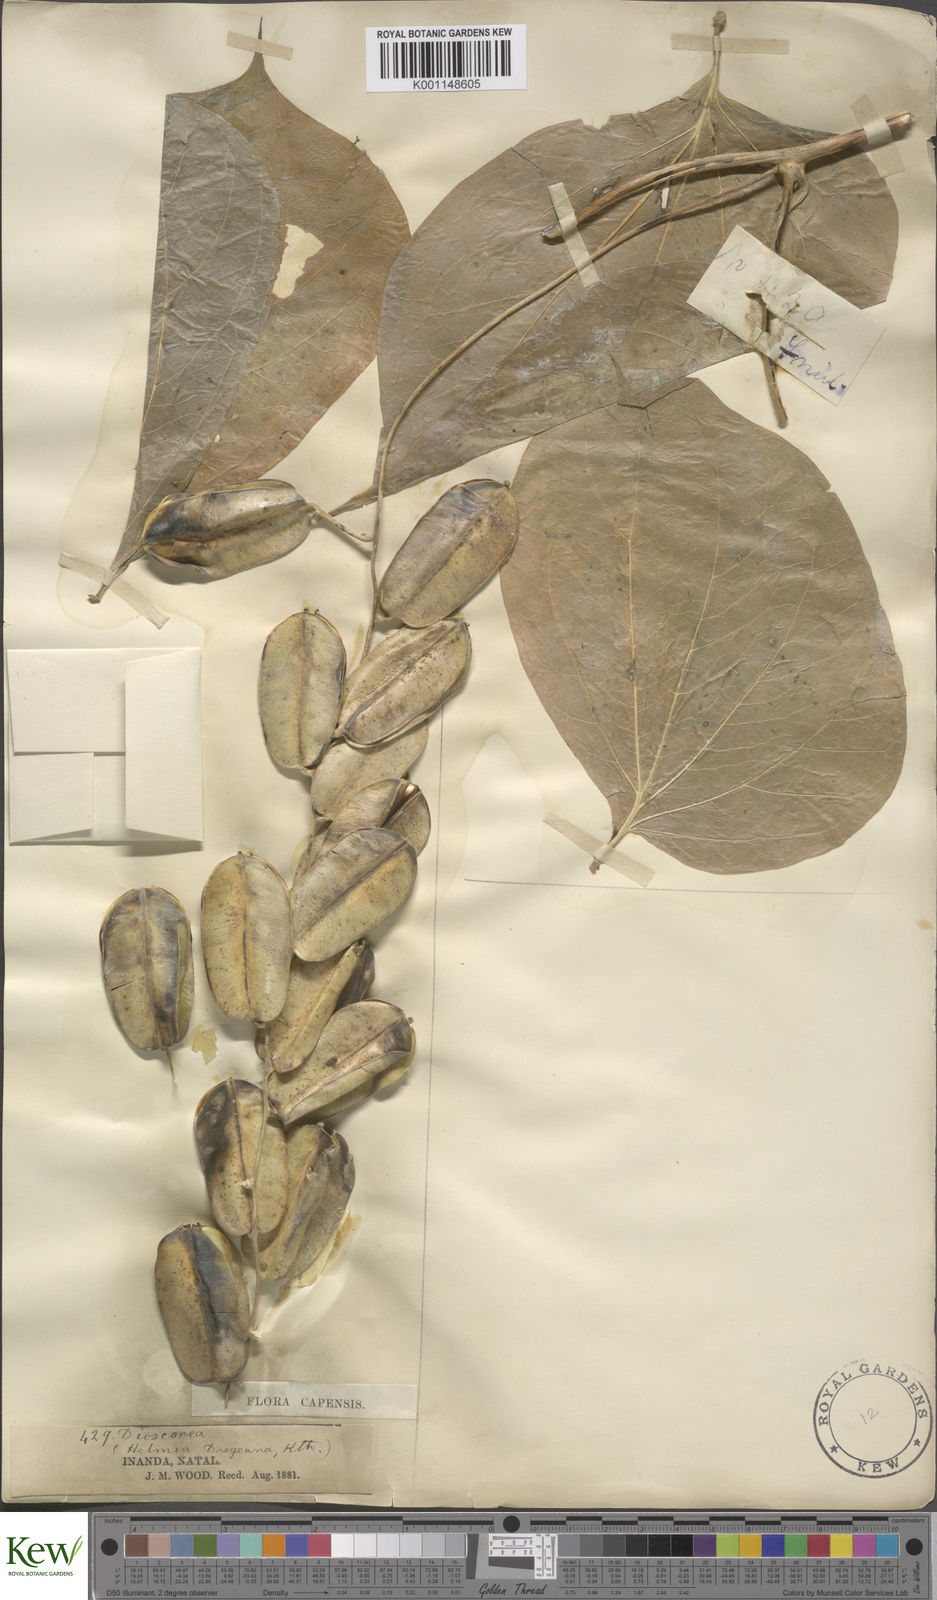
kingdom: Plantae
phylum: Tracheophyta
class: Liliopsida
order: Dioscoreales
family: Dioscoreaceae
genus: Dioscorea
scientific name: Dioscorea dregeana
